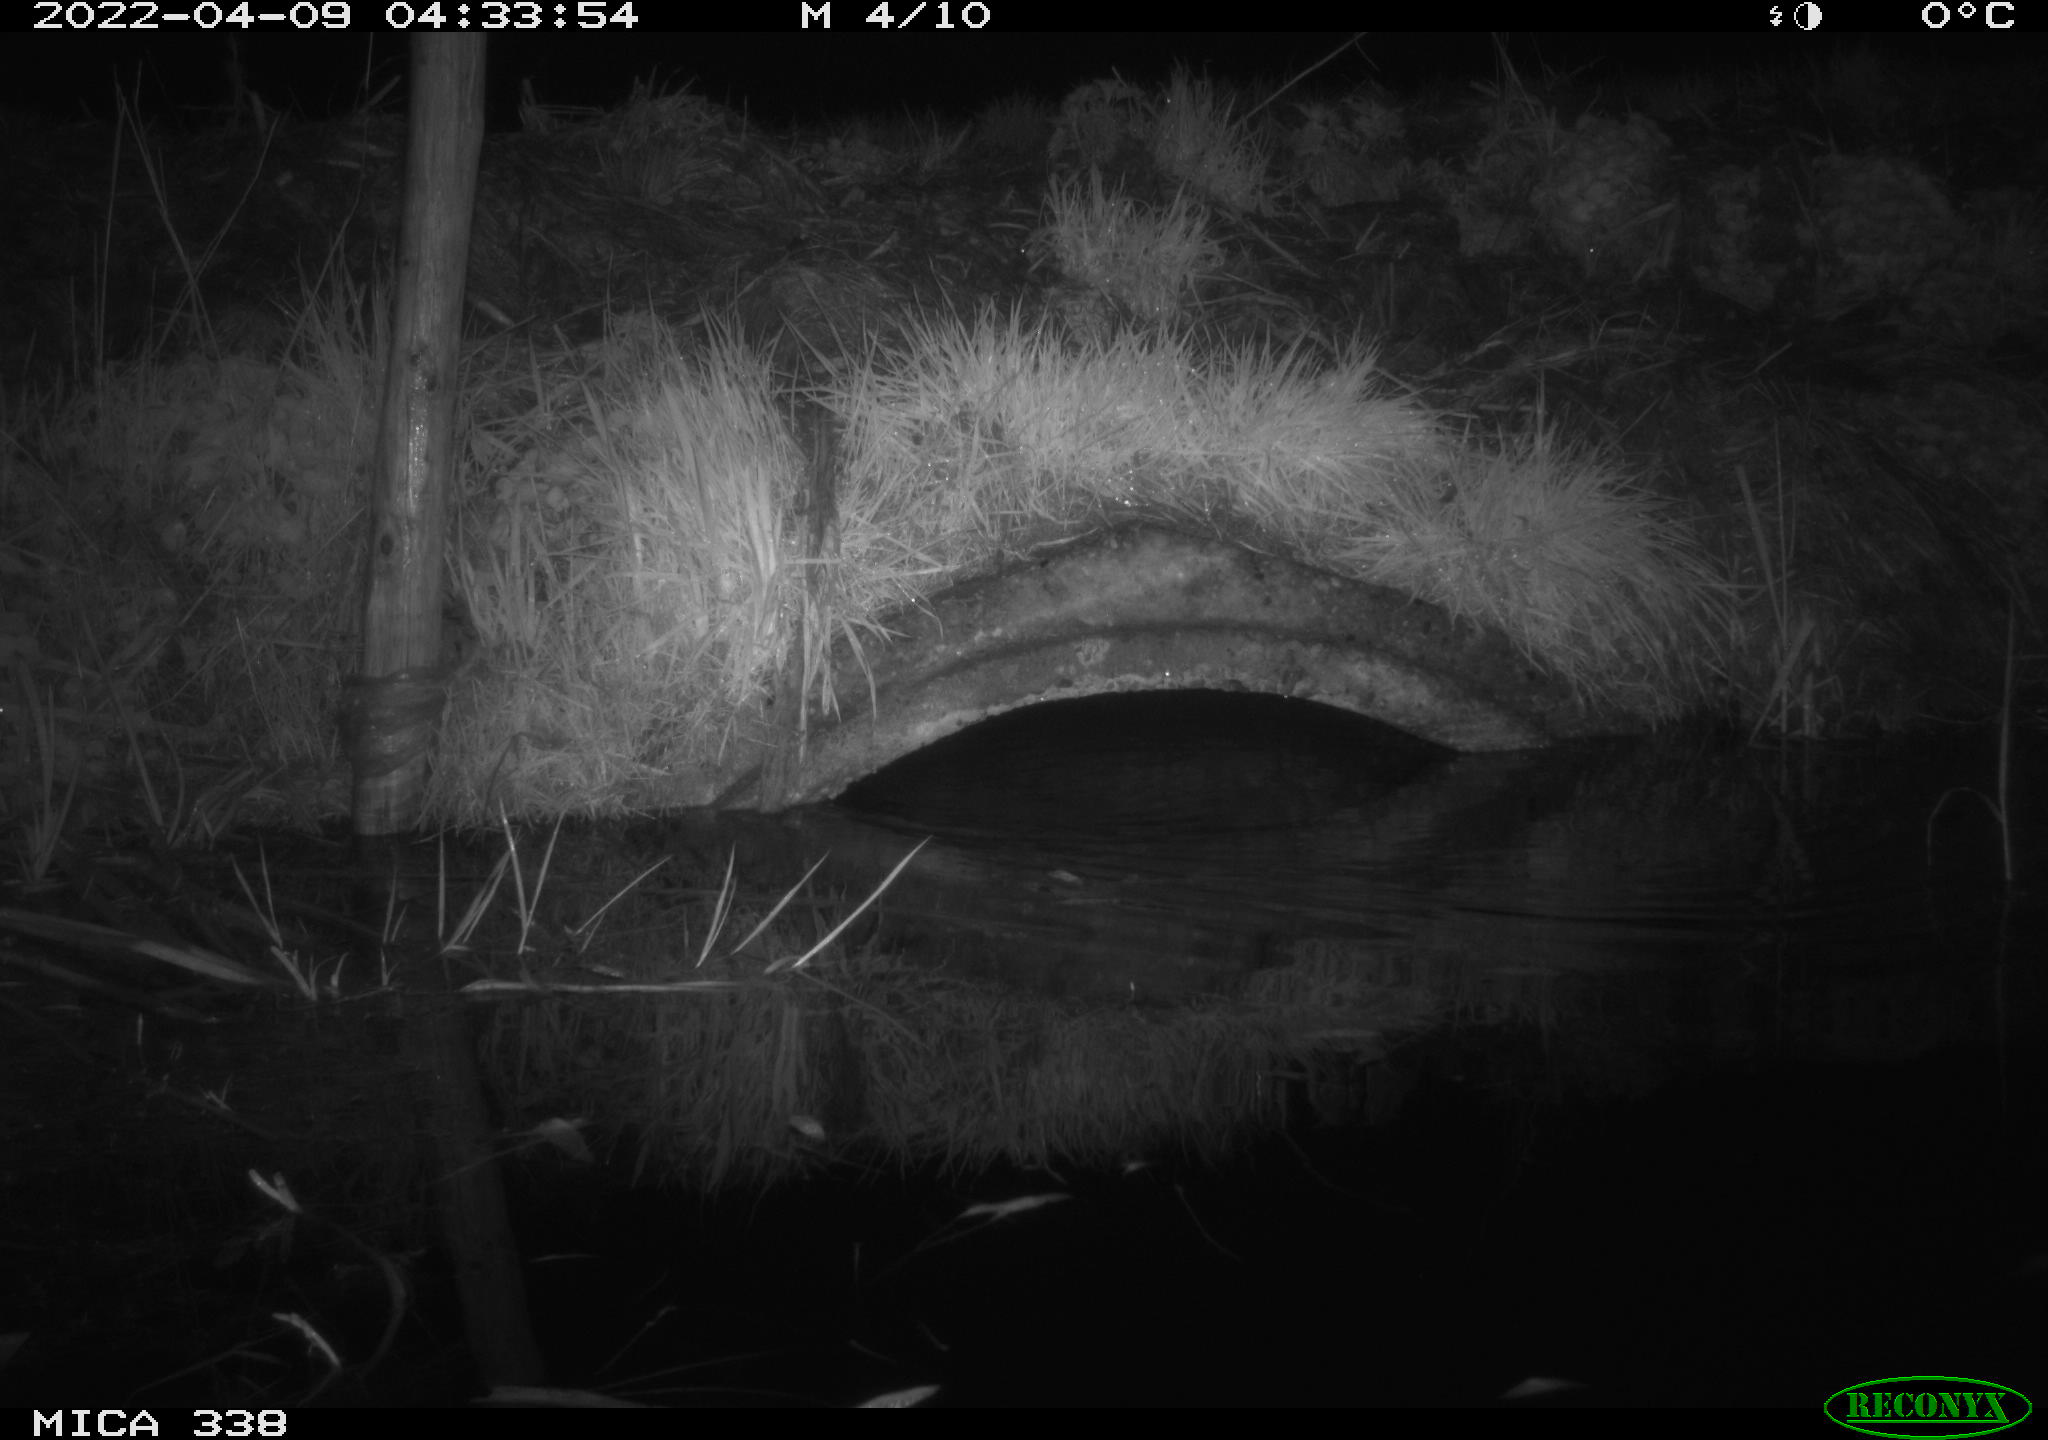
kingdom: Animalia
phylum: Chordata
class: Mammalia
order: Rodentia
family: Muridae
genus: Rattus
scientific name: Rattus norvegicus
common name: Brown rat
